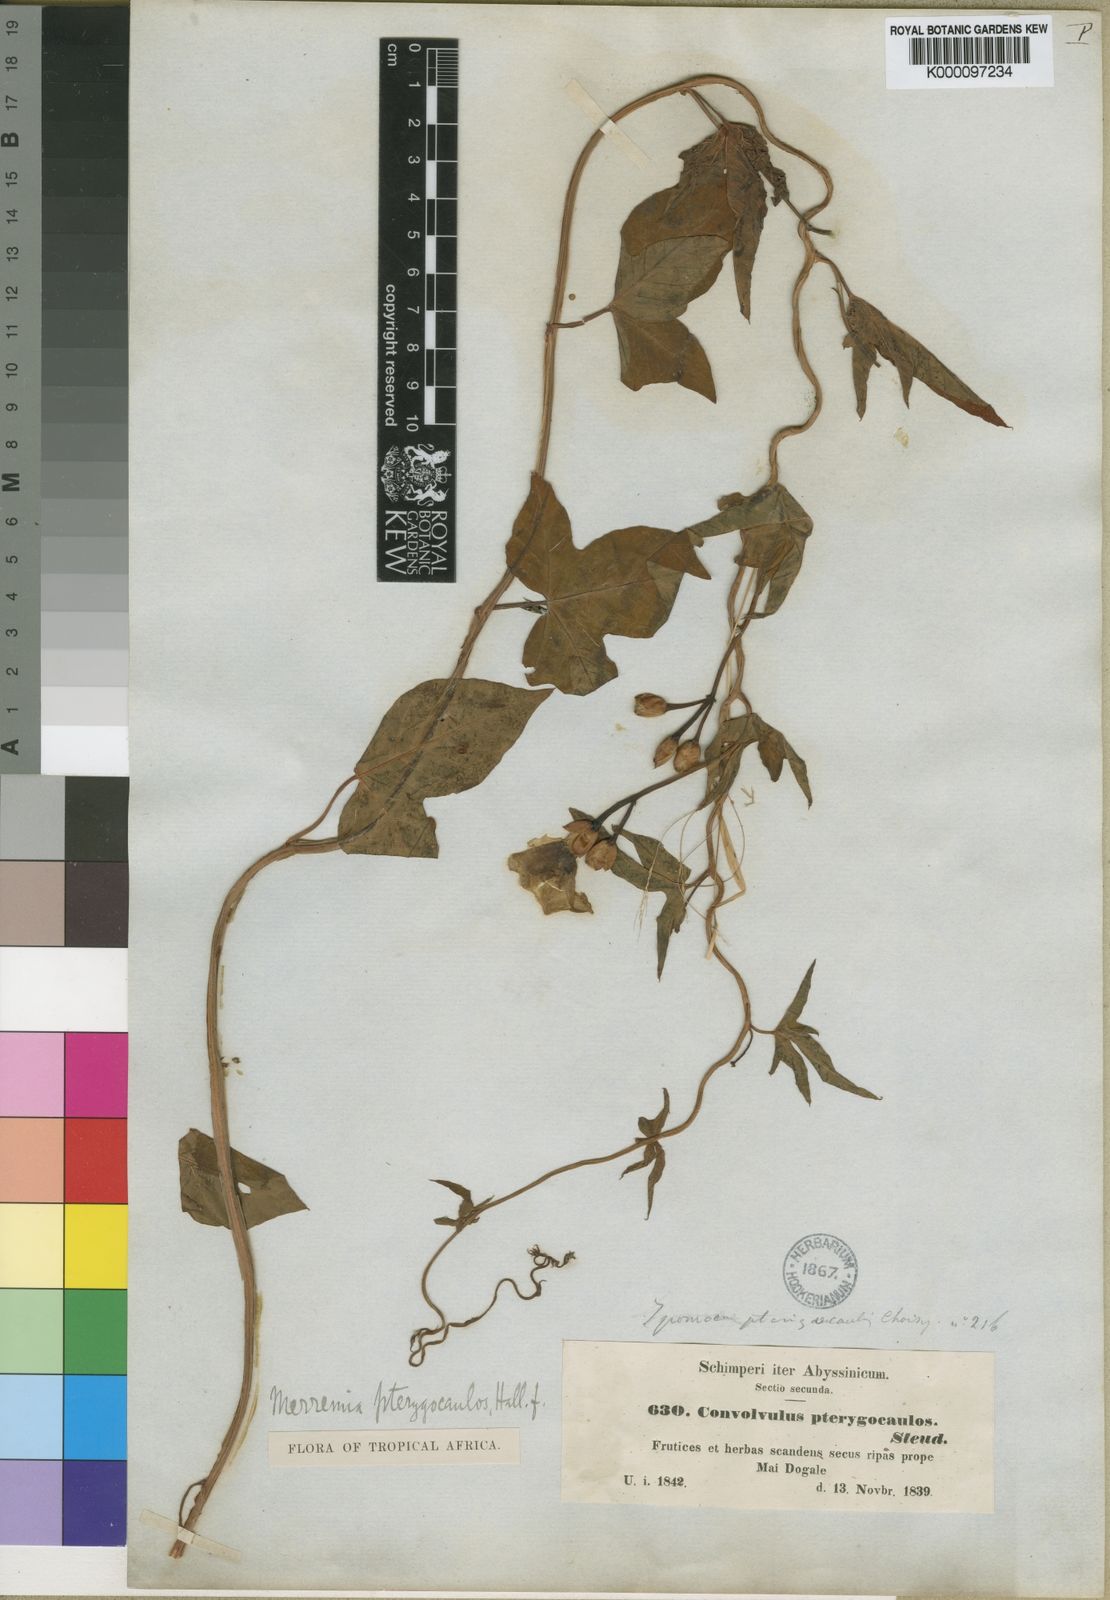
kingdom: Plantae
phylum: Tracheophyta
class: Magnoliopsida
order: Solanales
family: Convolvulaceae
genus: Merremia
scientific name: Merremia pterygocaulos
